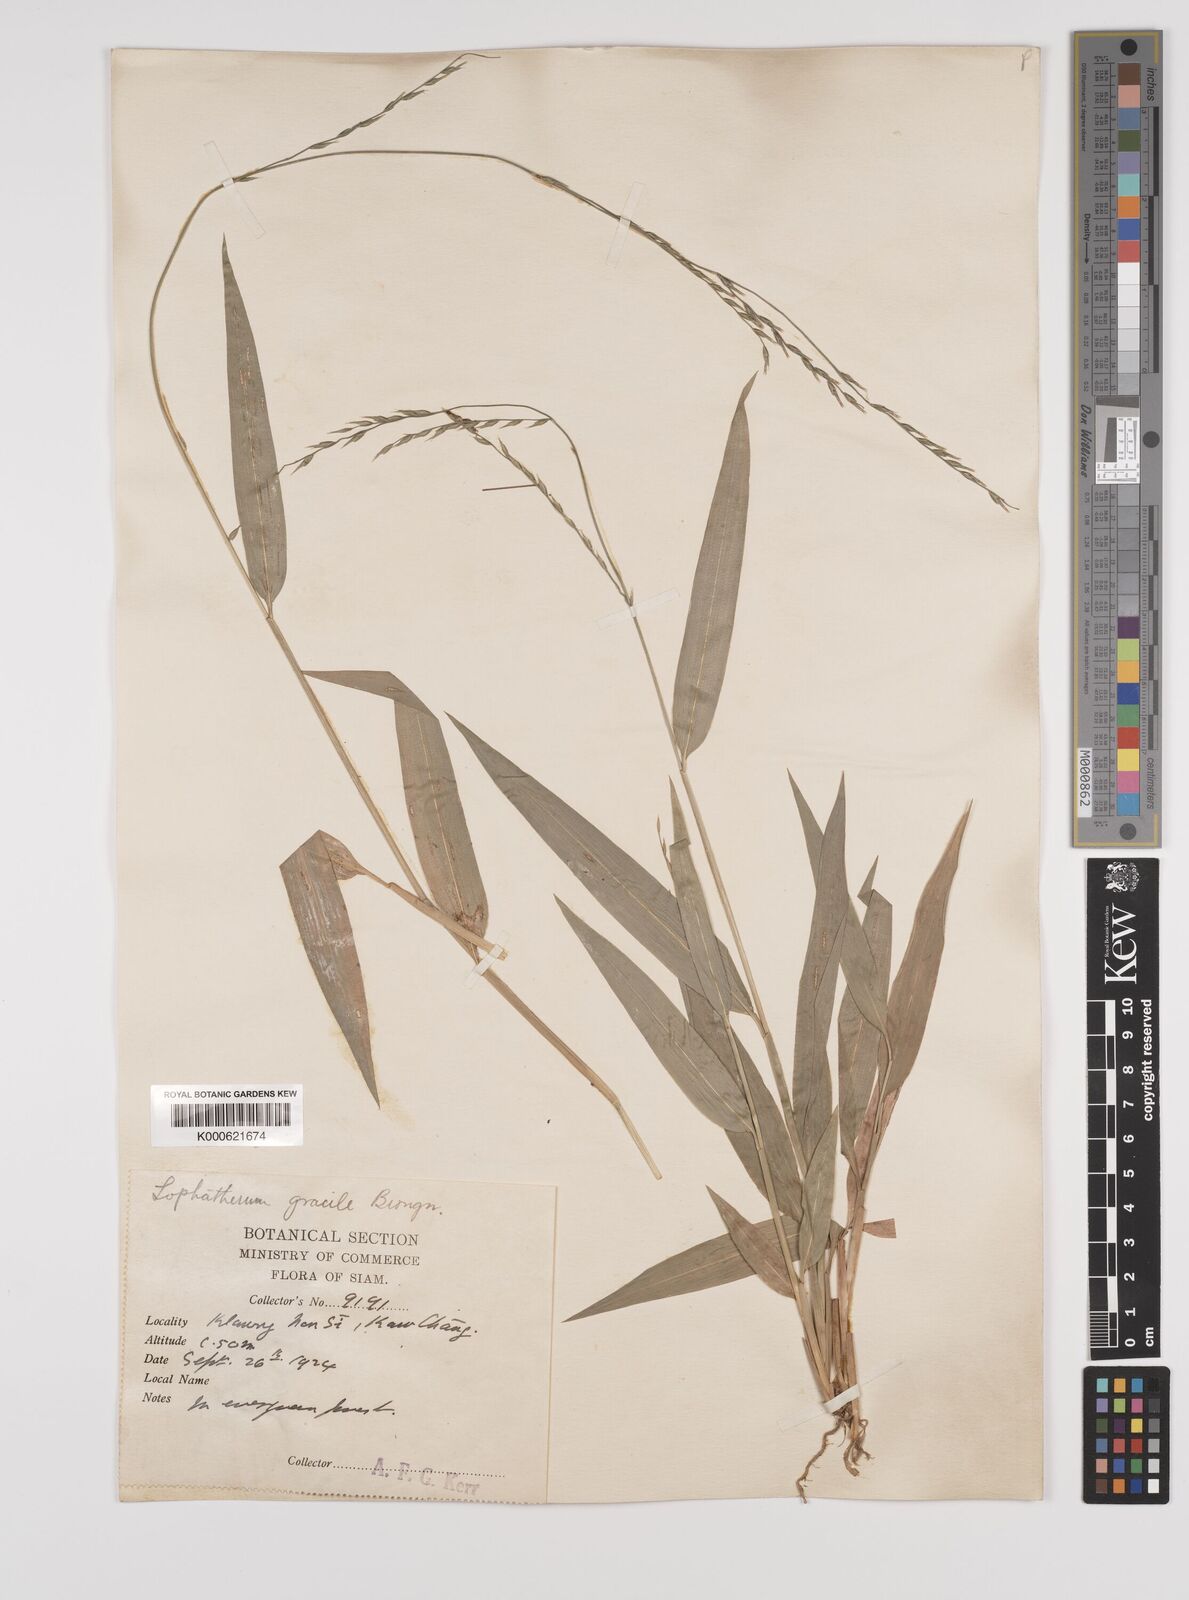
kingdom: Plantae
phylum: Tracheophyta
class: Liliopsida
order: Poales
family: Poaceae
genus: Lophatherum
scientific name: Lophatherum gracile
